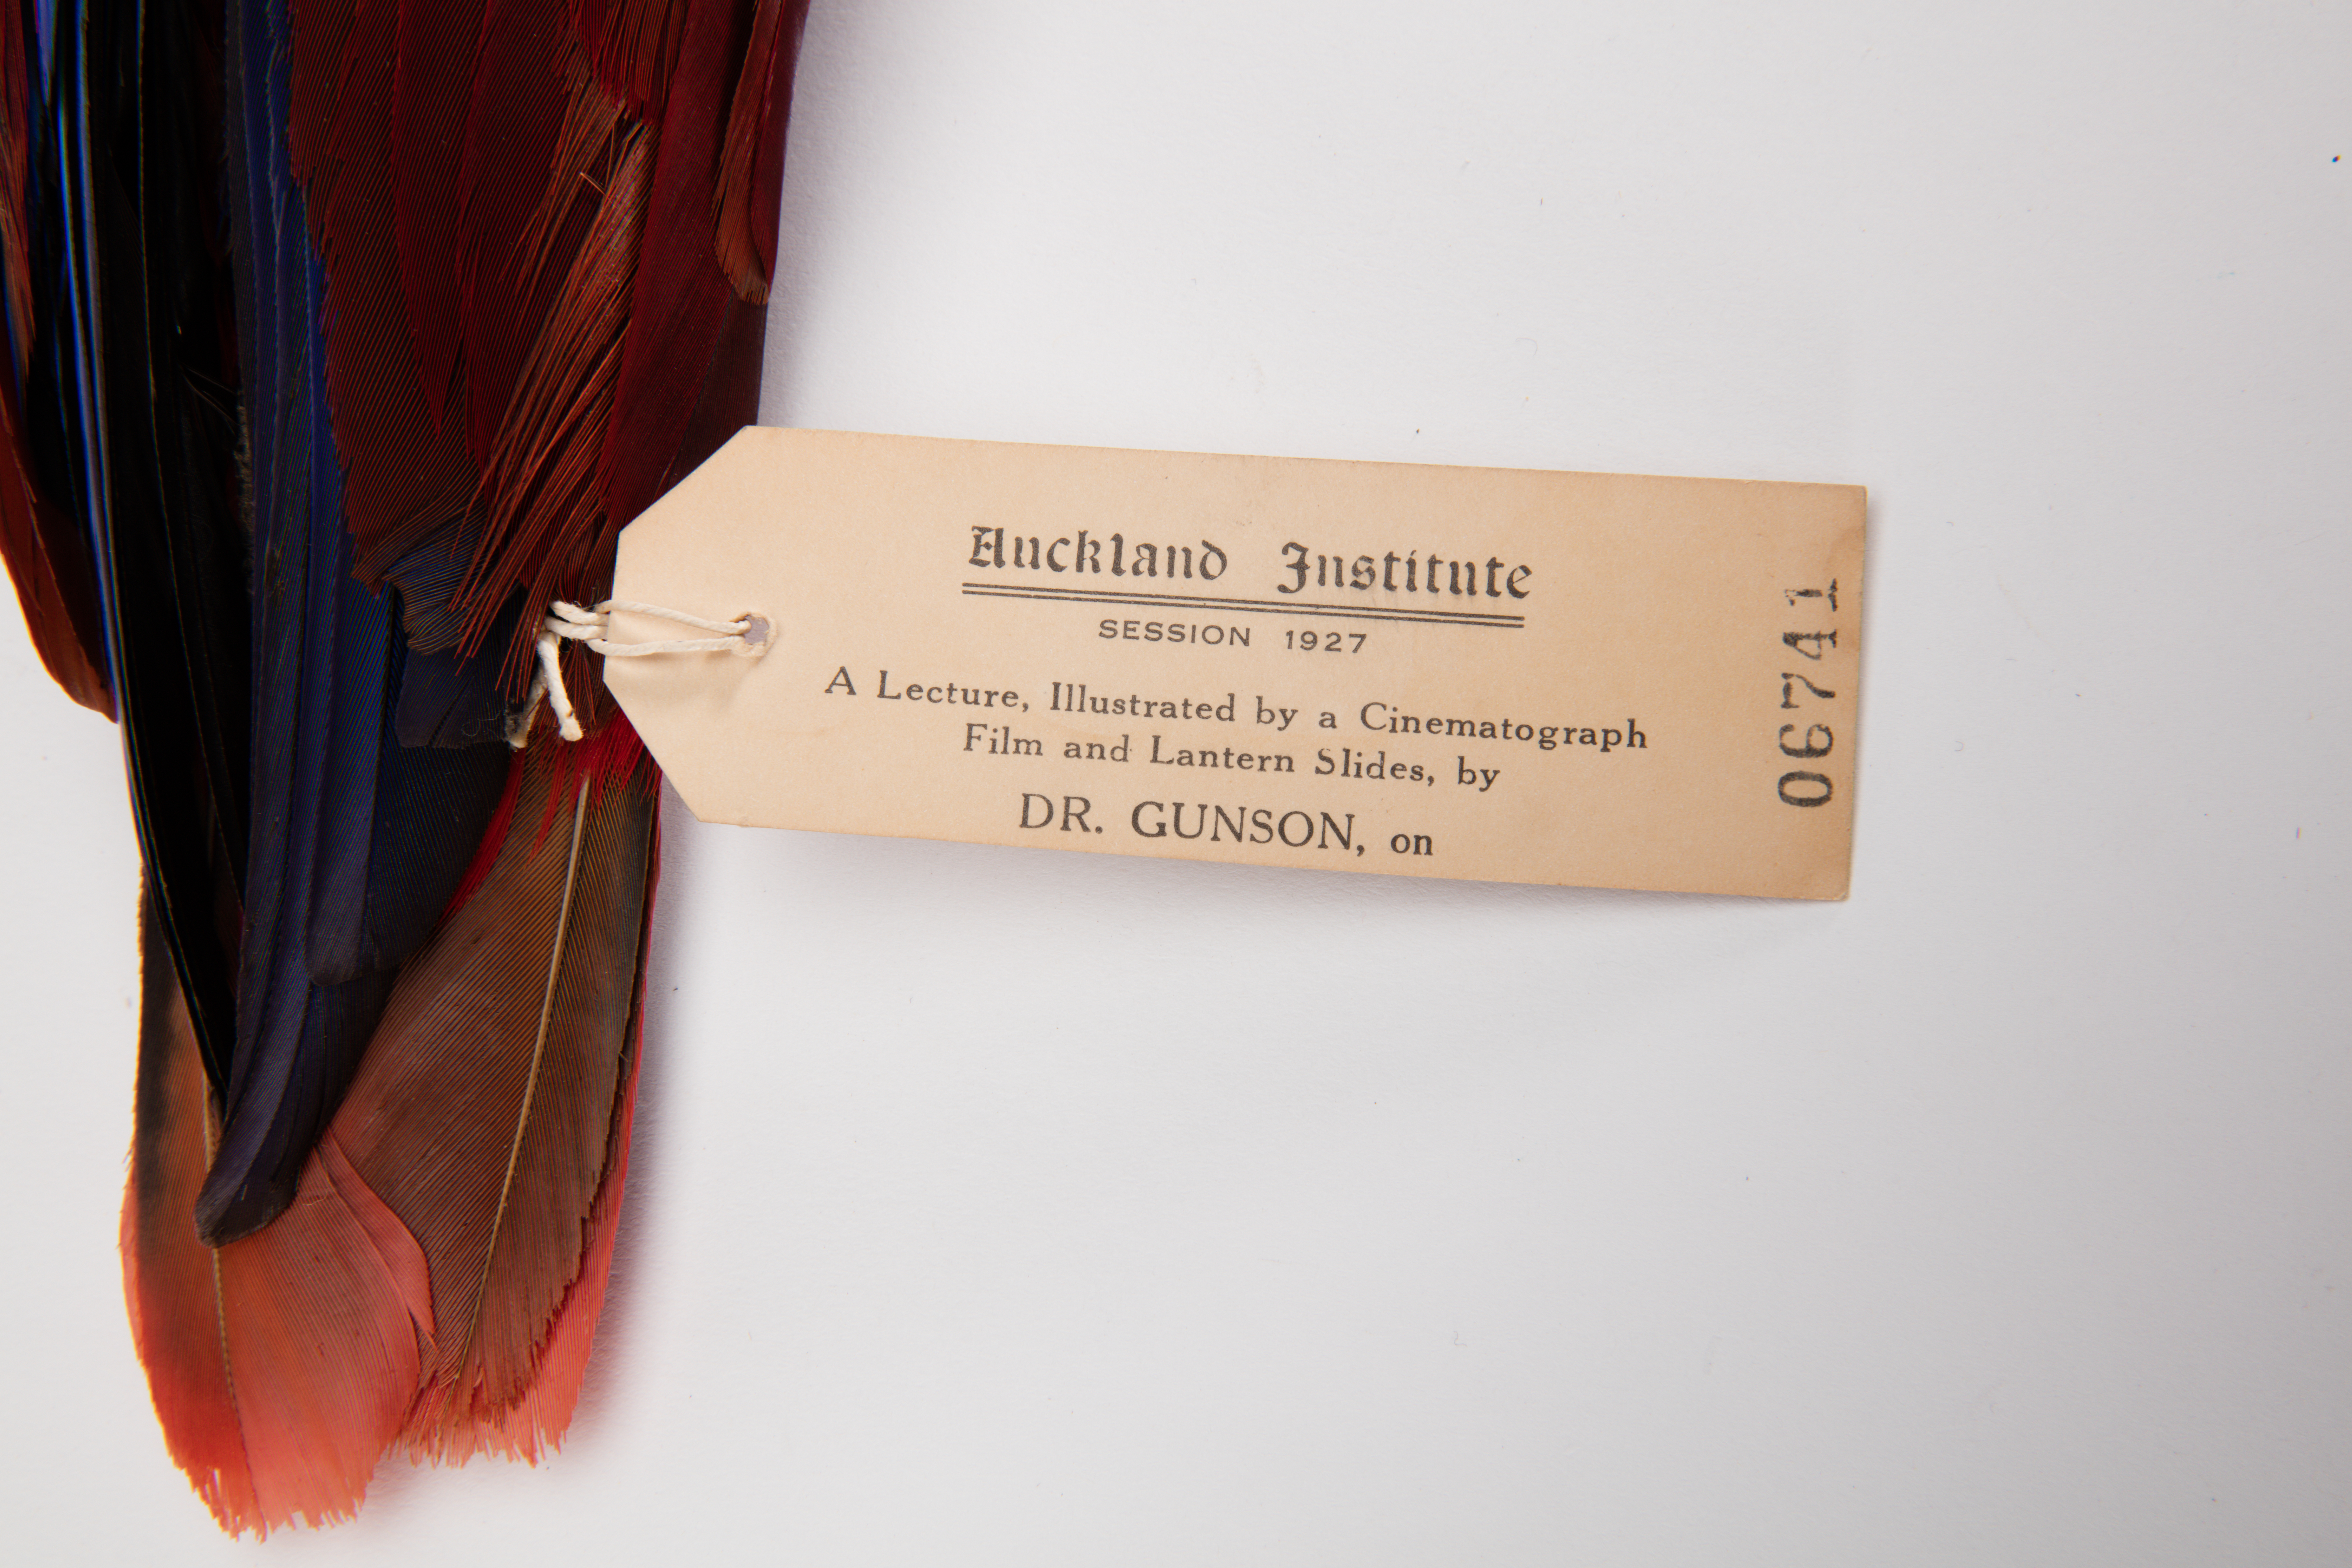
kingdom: Animalia
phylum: Chordata
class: Aves
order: Psittaciformes
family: Psittacidae
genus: Eclectus
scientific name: Eclectus roratus
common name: Eclectus parrot
